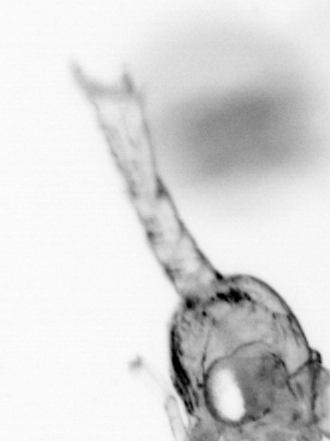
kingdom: Animalia
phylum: Annelida
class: Polychaeta
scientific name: Polychaeta
